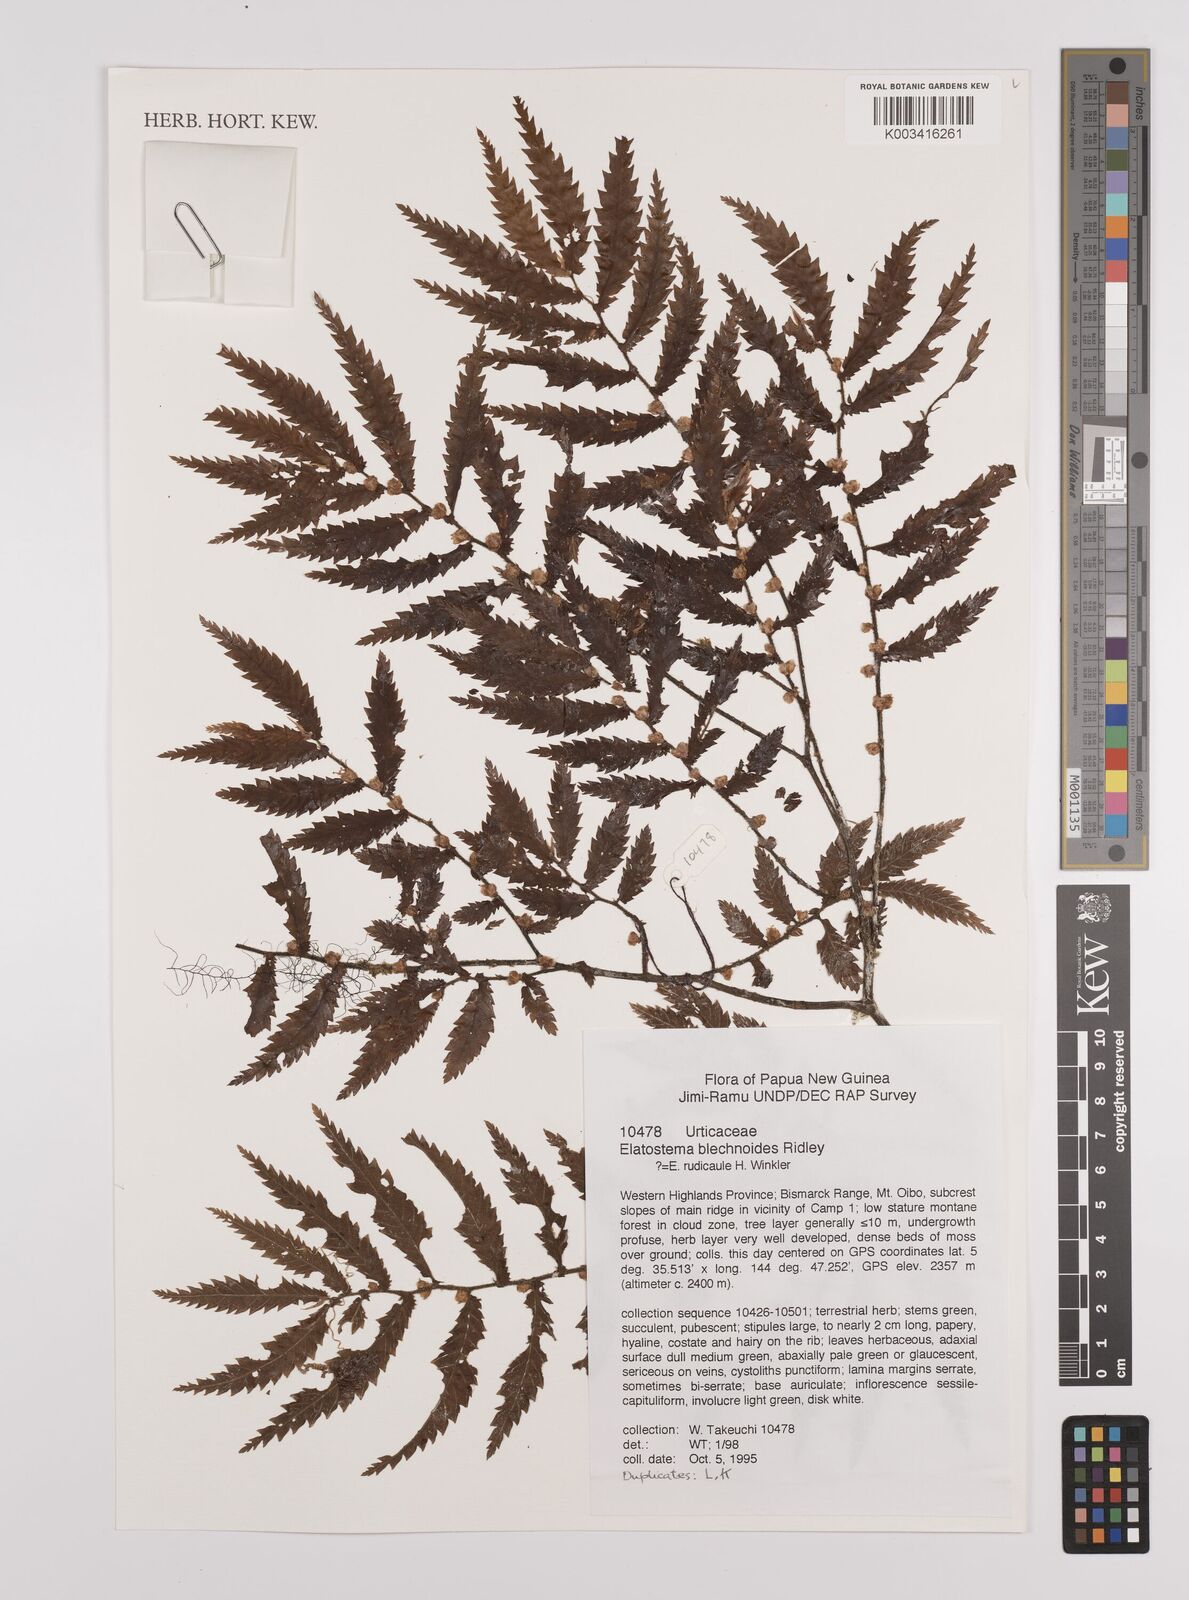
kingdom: Plantae
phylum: Tracheophyta
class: Magnoliopsida
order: Rosales
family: Urticaceae
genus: Elatostema
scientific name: Elatostema blechnoides
